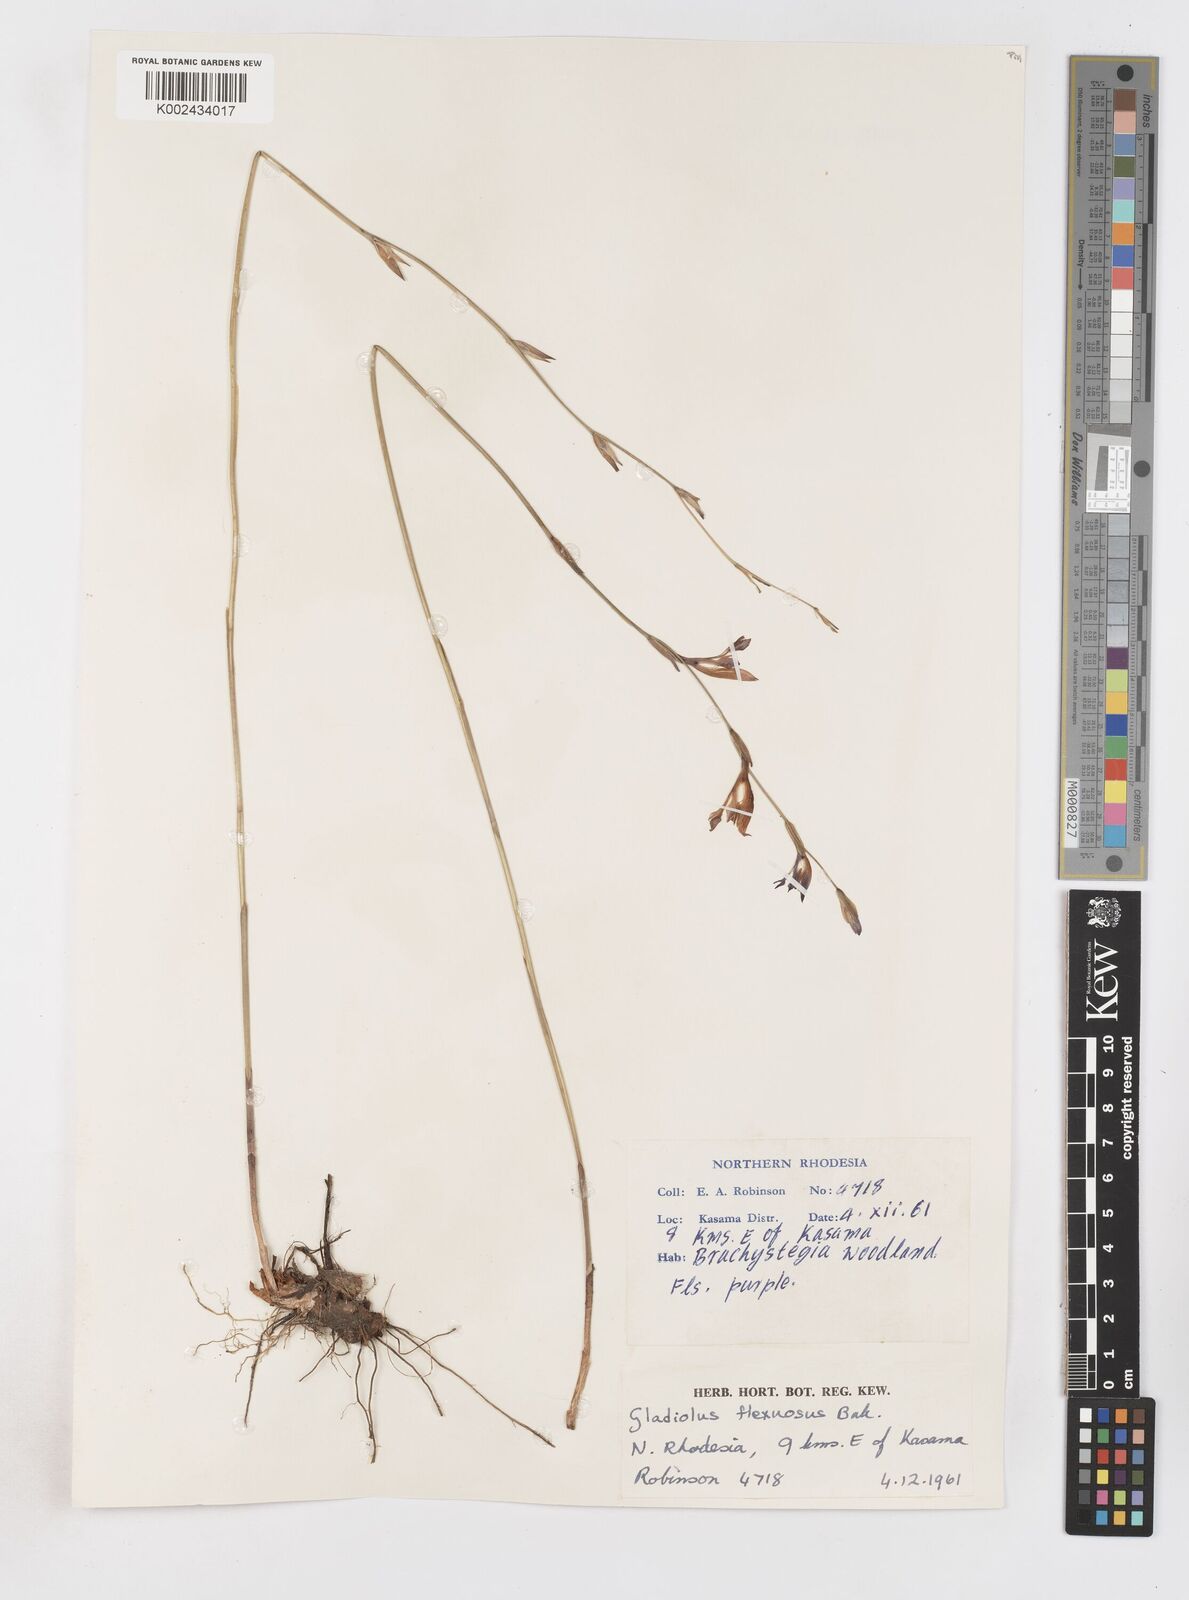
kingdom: Plantae
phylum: Tracheophyta
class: Liliopsida
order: Asparagales
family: Iridaceae
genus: Gladiolus
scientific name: Gladiolus atropurpureus
